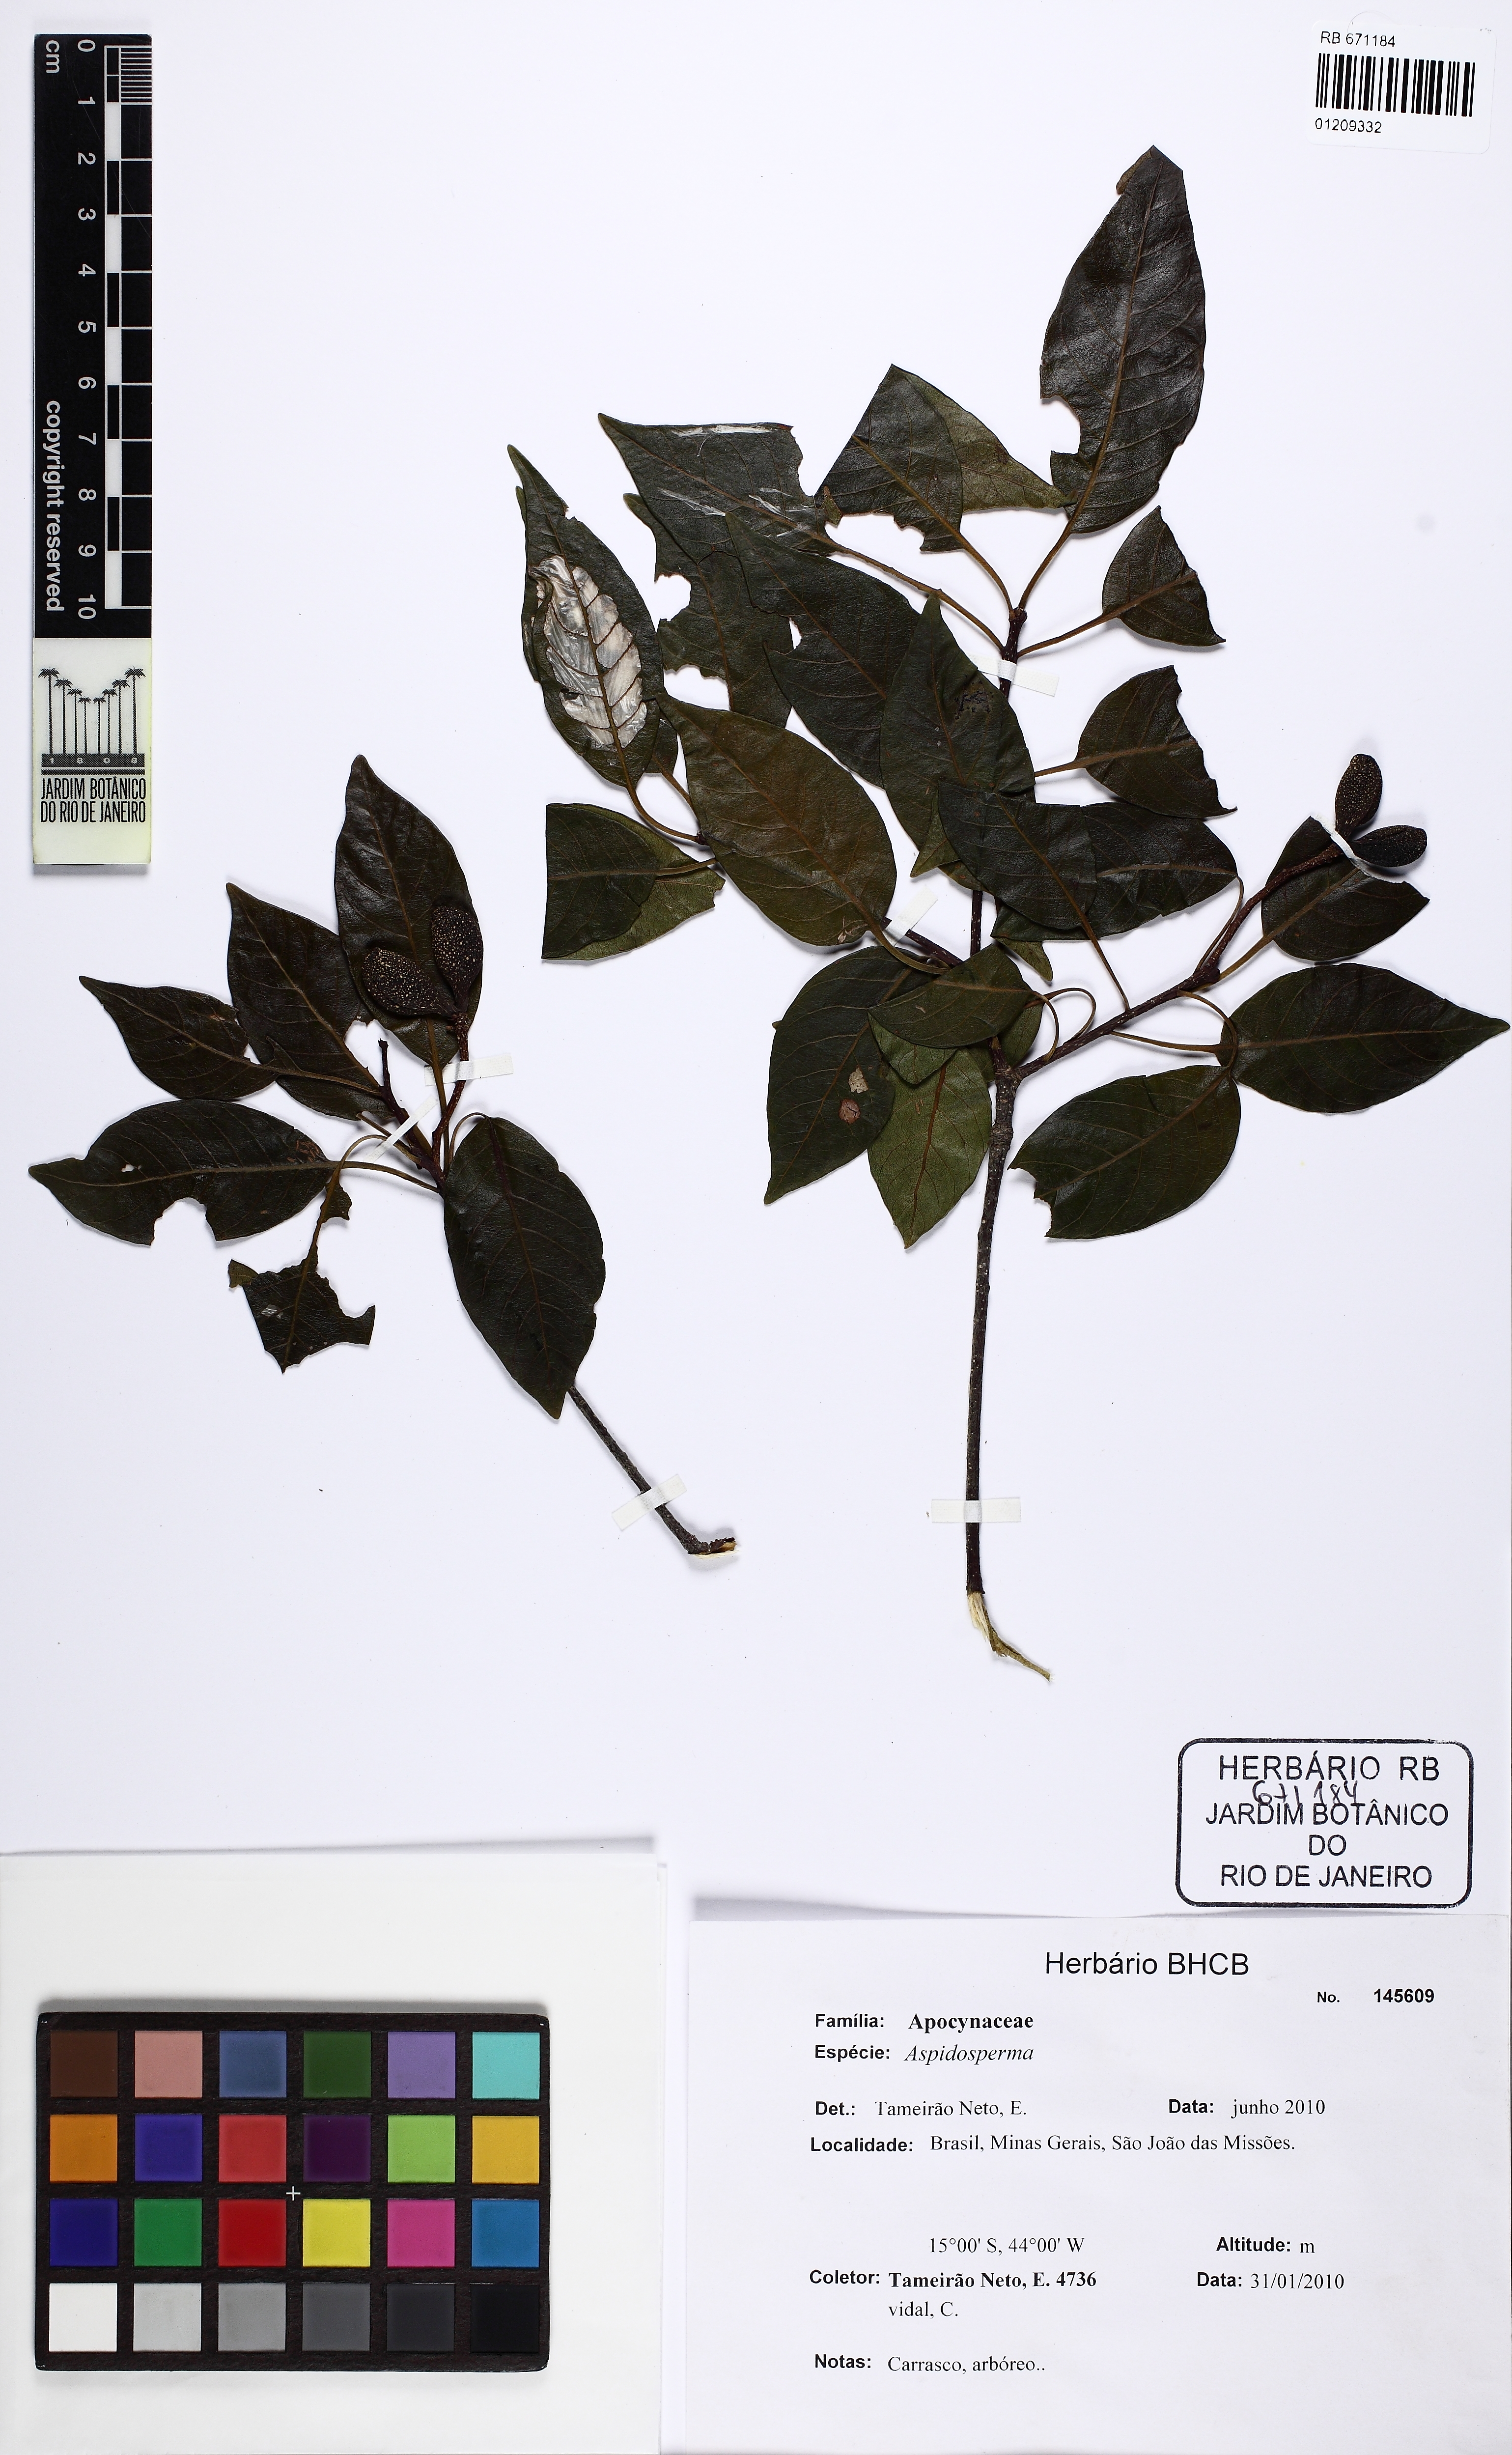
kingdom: Plantae
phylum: Tracheophyta
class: Magnoliopsida
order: Gentianales
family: Apocynaceae
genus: Aspidosperma
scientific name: Aspidosperma multiflorum
